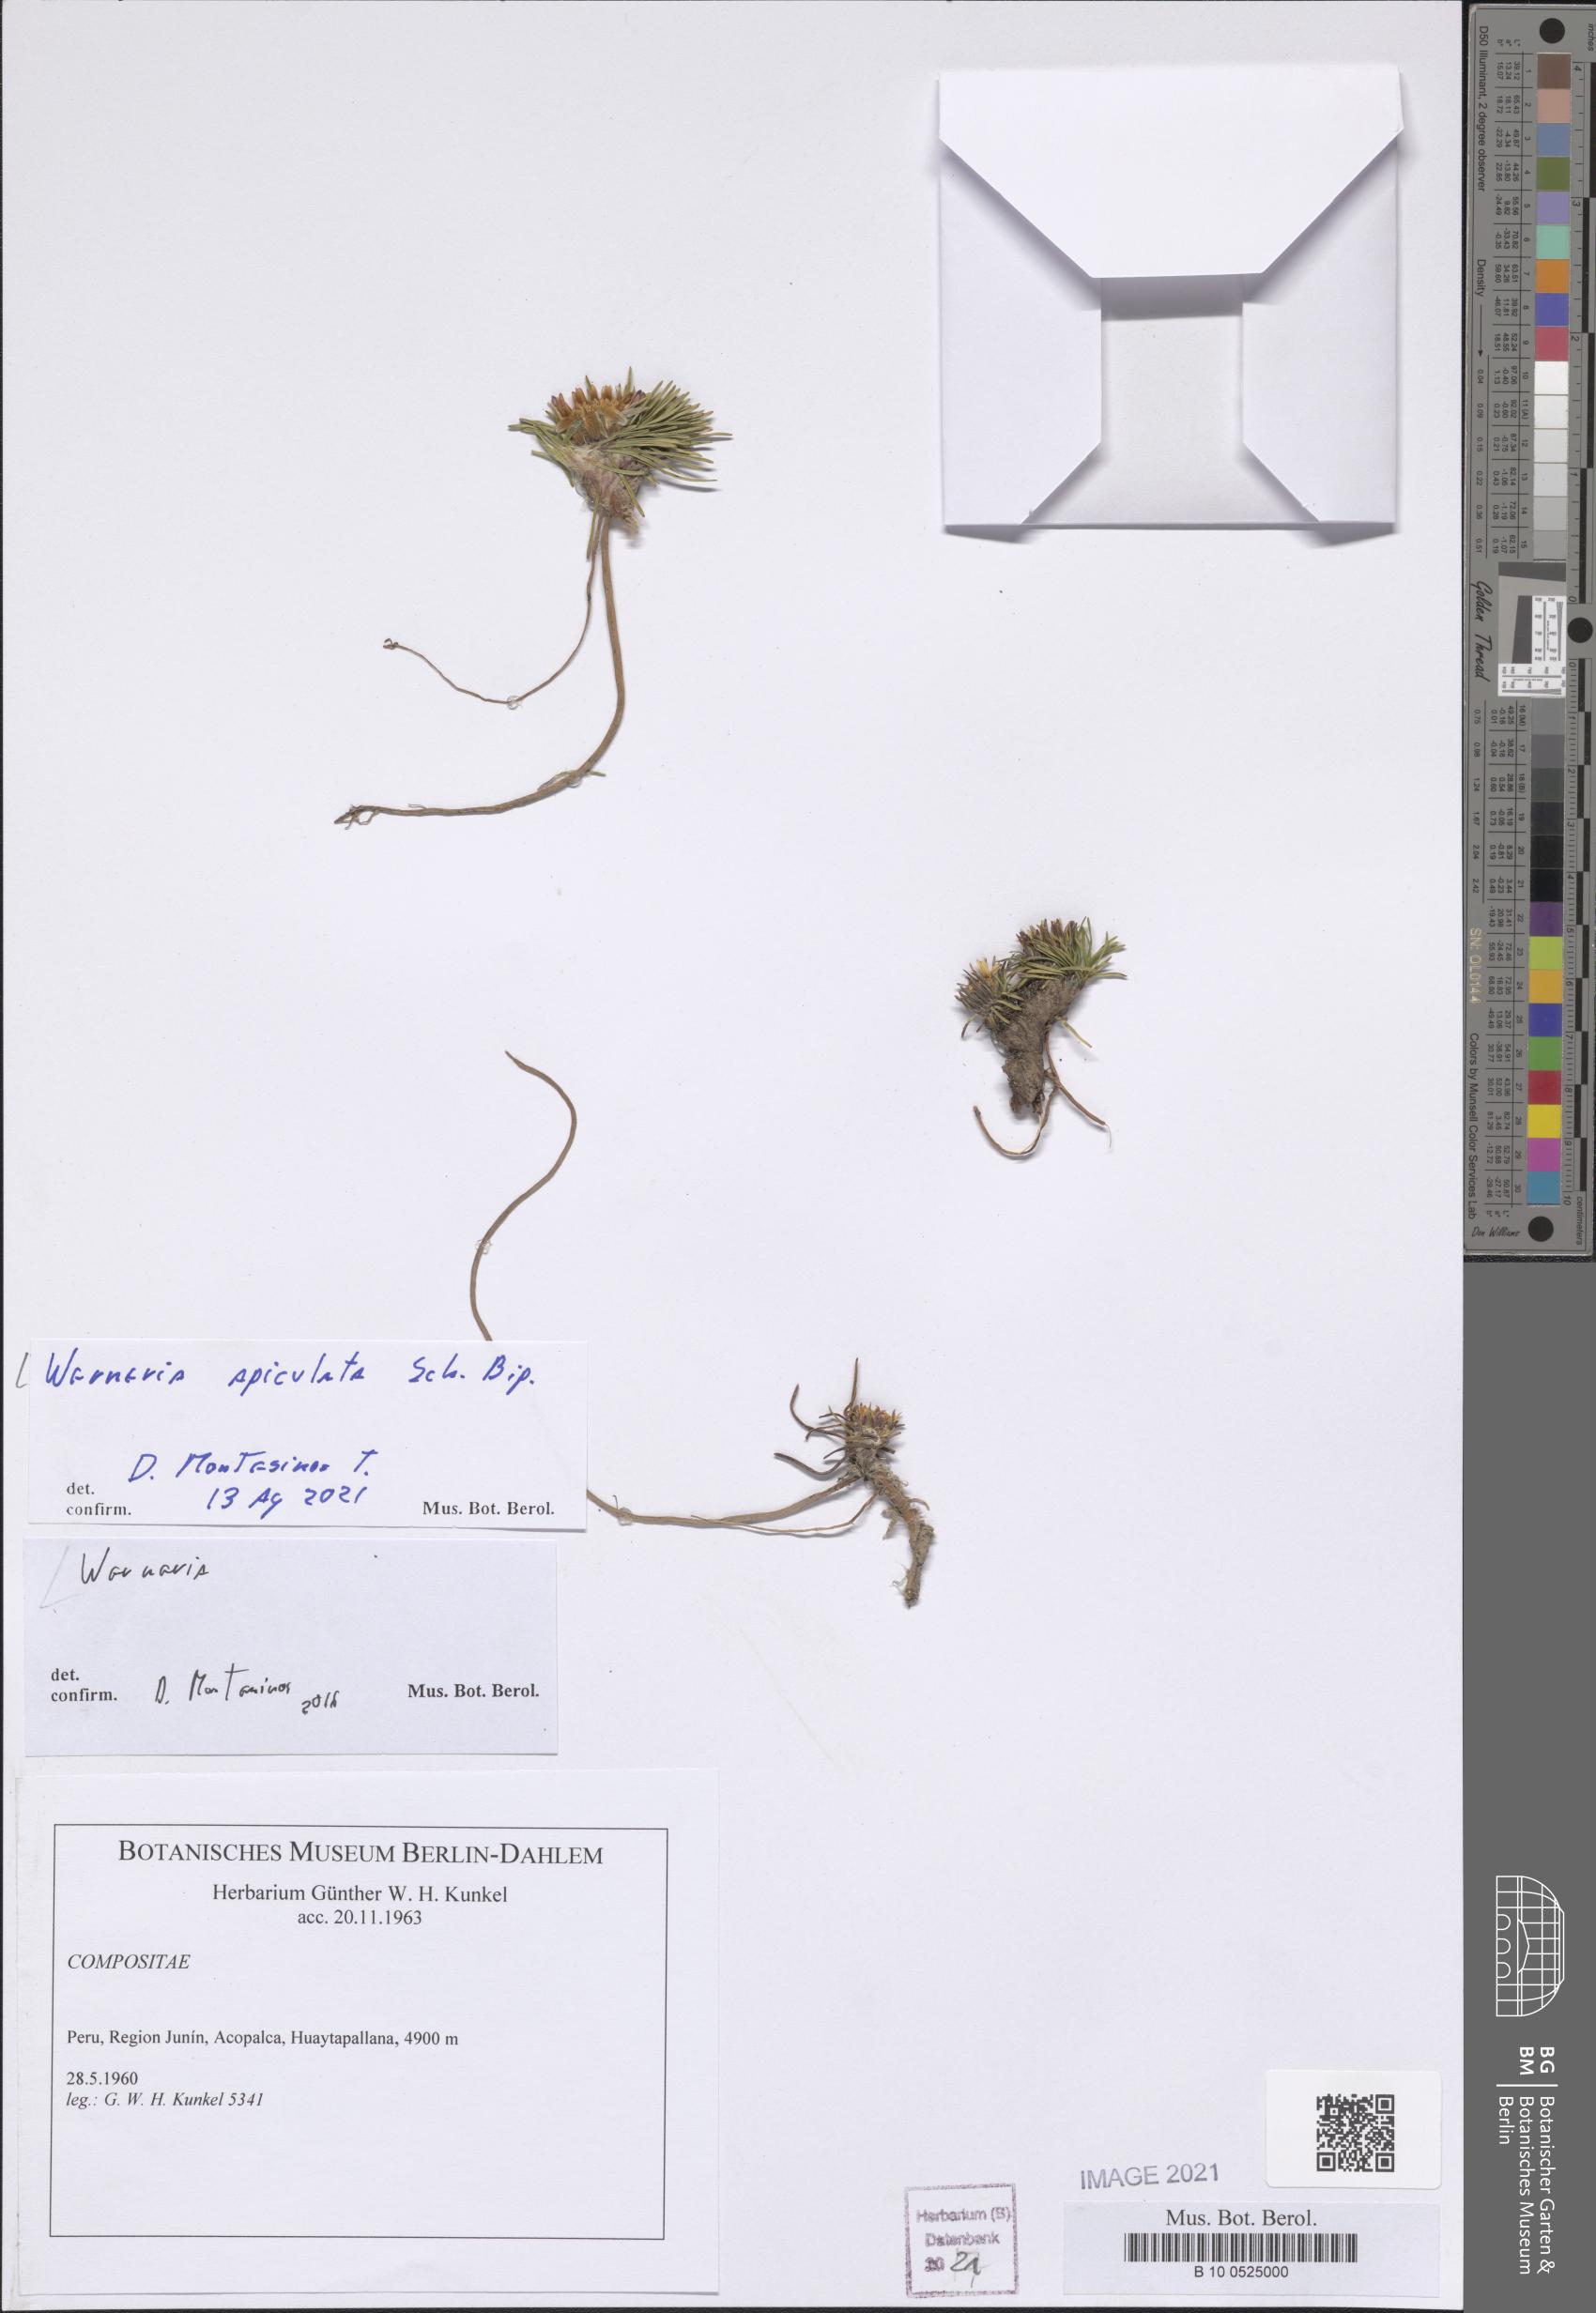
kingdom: Plantae
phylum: Tracheophyta
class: Magnoliopsida
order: Asterales
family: Asteraceae
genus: Rockhausenia
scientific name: Rockhausenia apiculata
